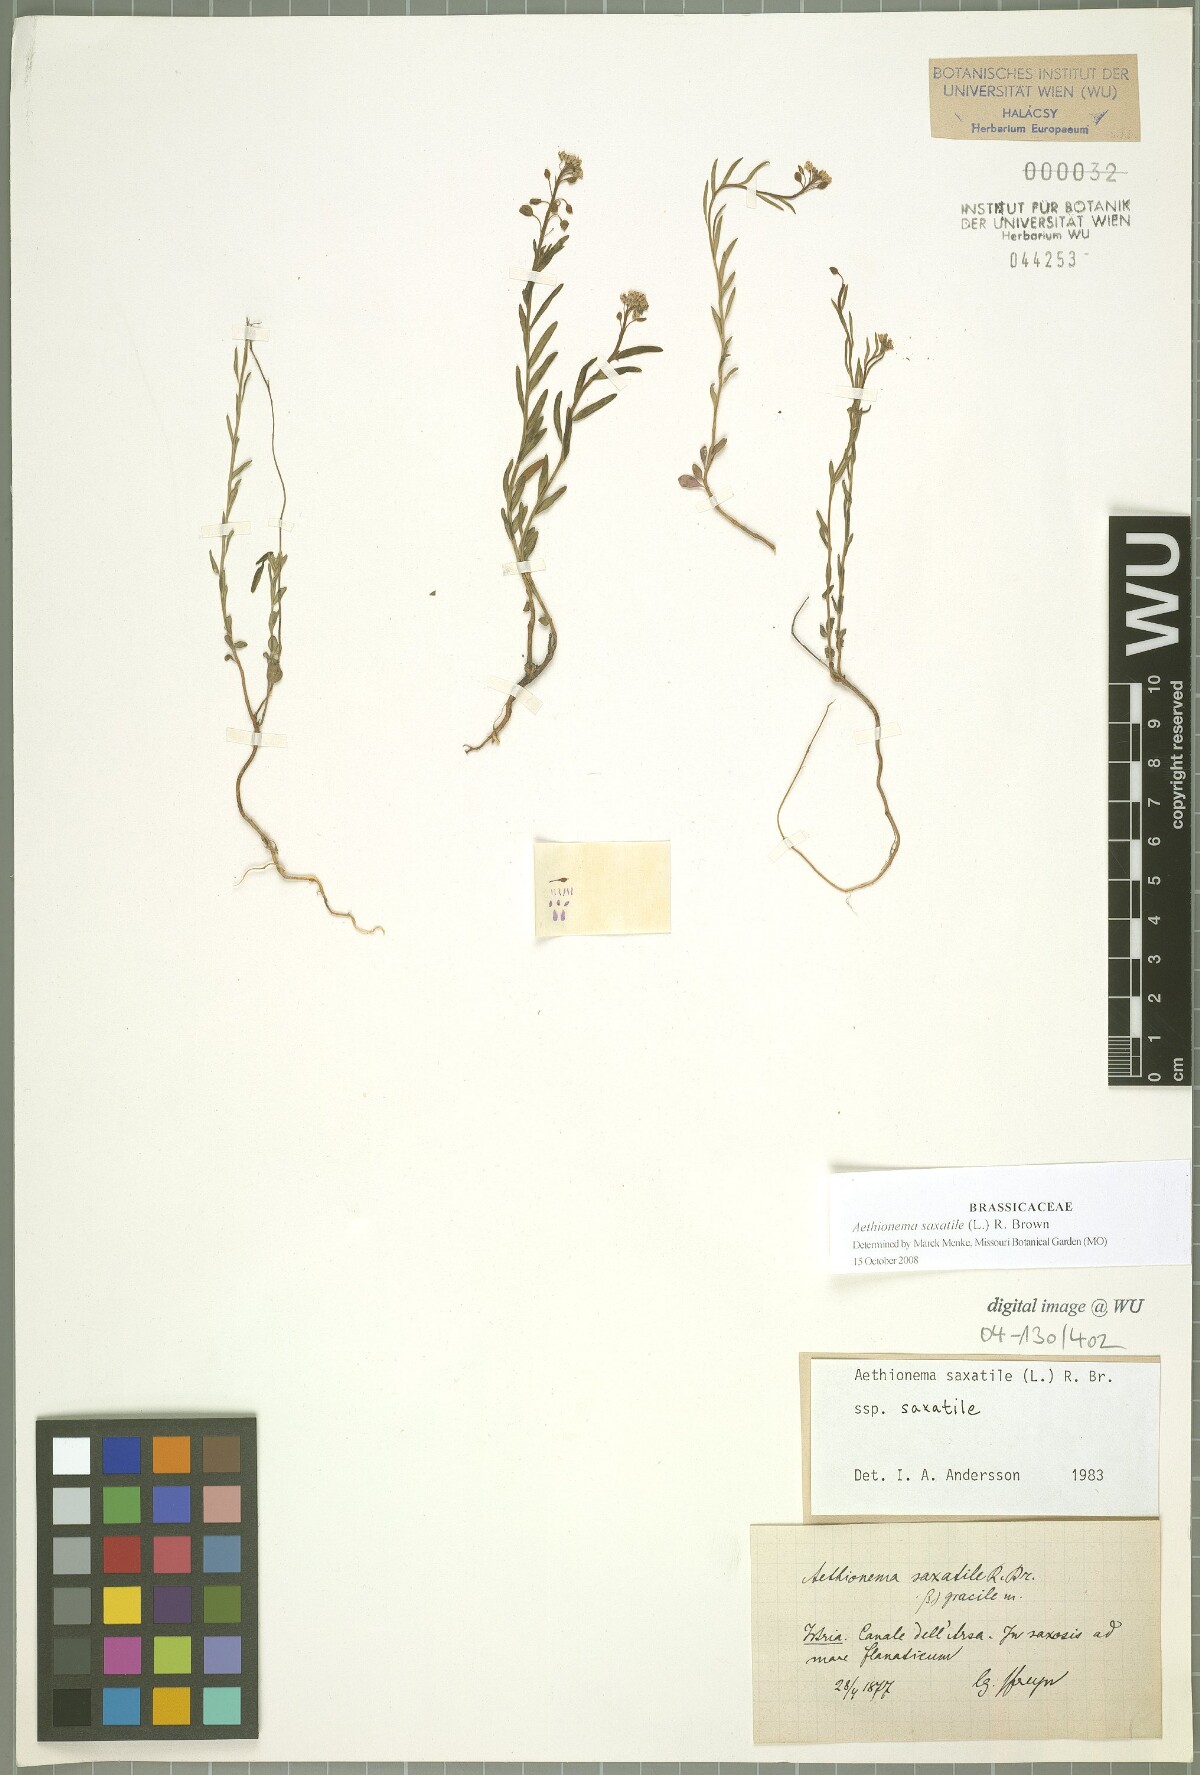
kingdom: Plantae
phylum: Tracheophyta
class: Magnoliopsida
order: Brassicales
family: Brassicaceae
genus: Aethionema
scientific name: Aethionema saxatile
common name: Burnt candytuft
